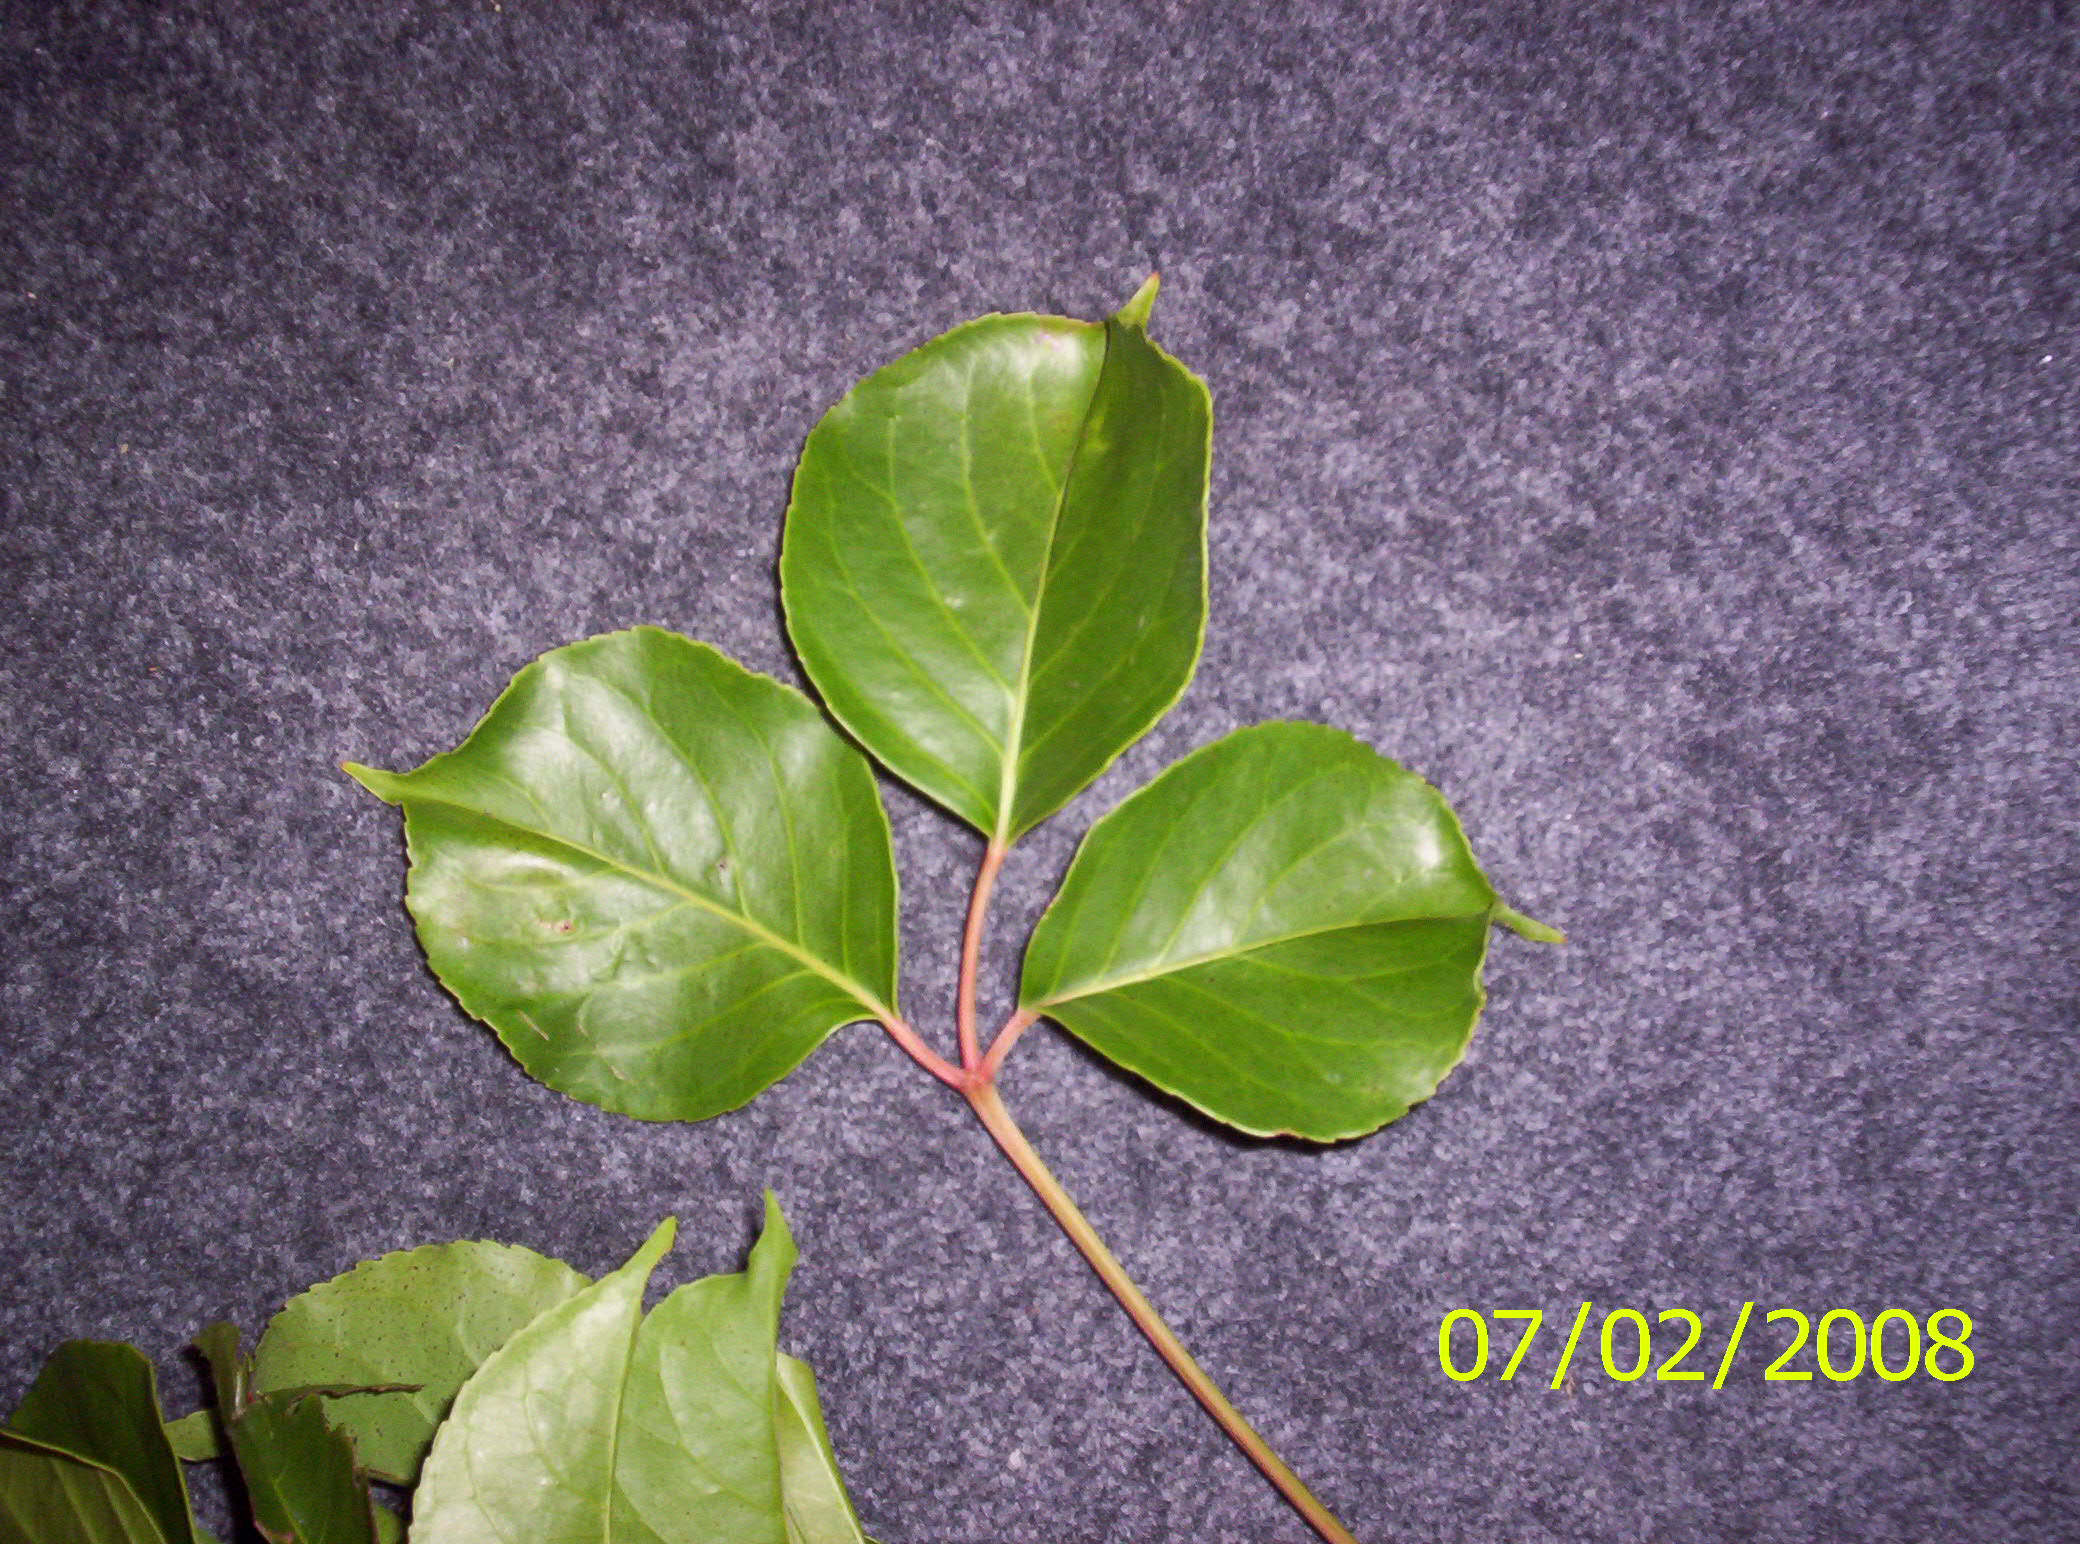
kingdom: Plantae
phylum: Tracheophyta
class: Magnoliopsida
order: Malpighiales
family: Phyllanthaceae
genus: Bischofia
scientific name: Bischofia javanica
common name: Javanese bishopwood
